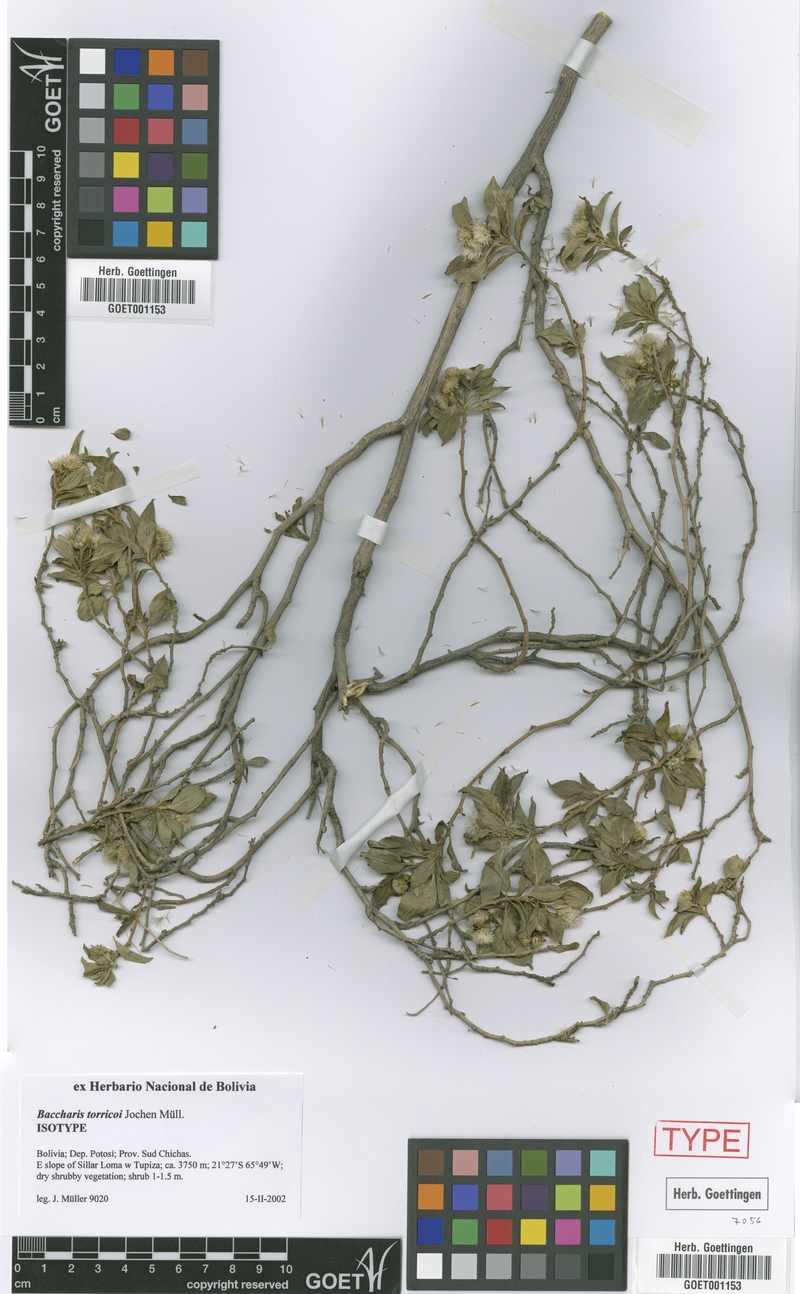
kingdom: Plantae
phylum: Tracheophyta
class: Magnoliopsida
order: Asterales
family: Asteraceae
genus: Baccharis
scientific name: Baccharis torricoi
